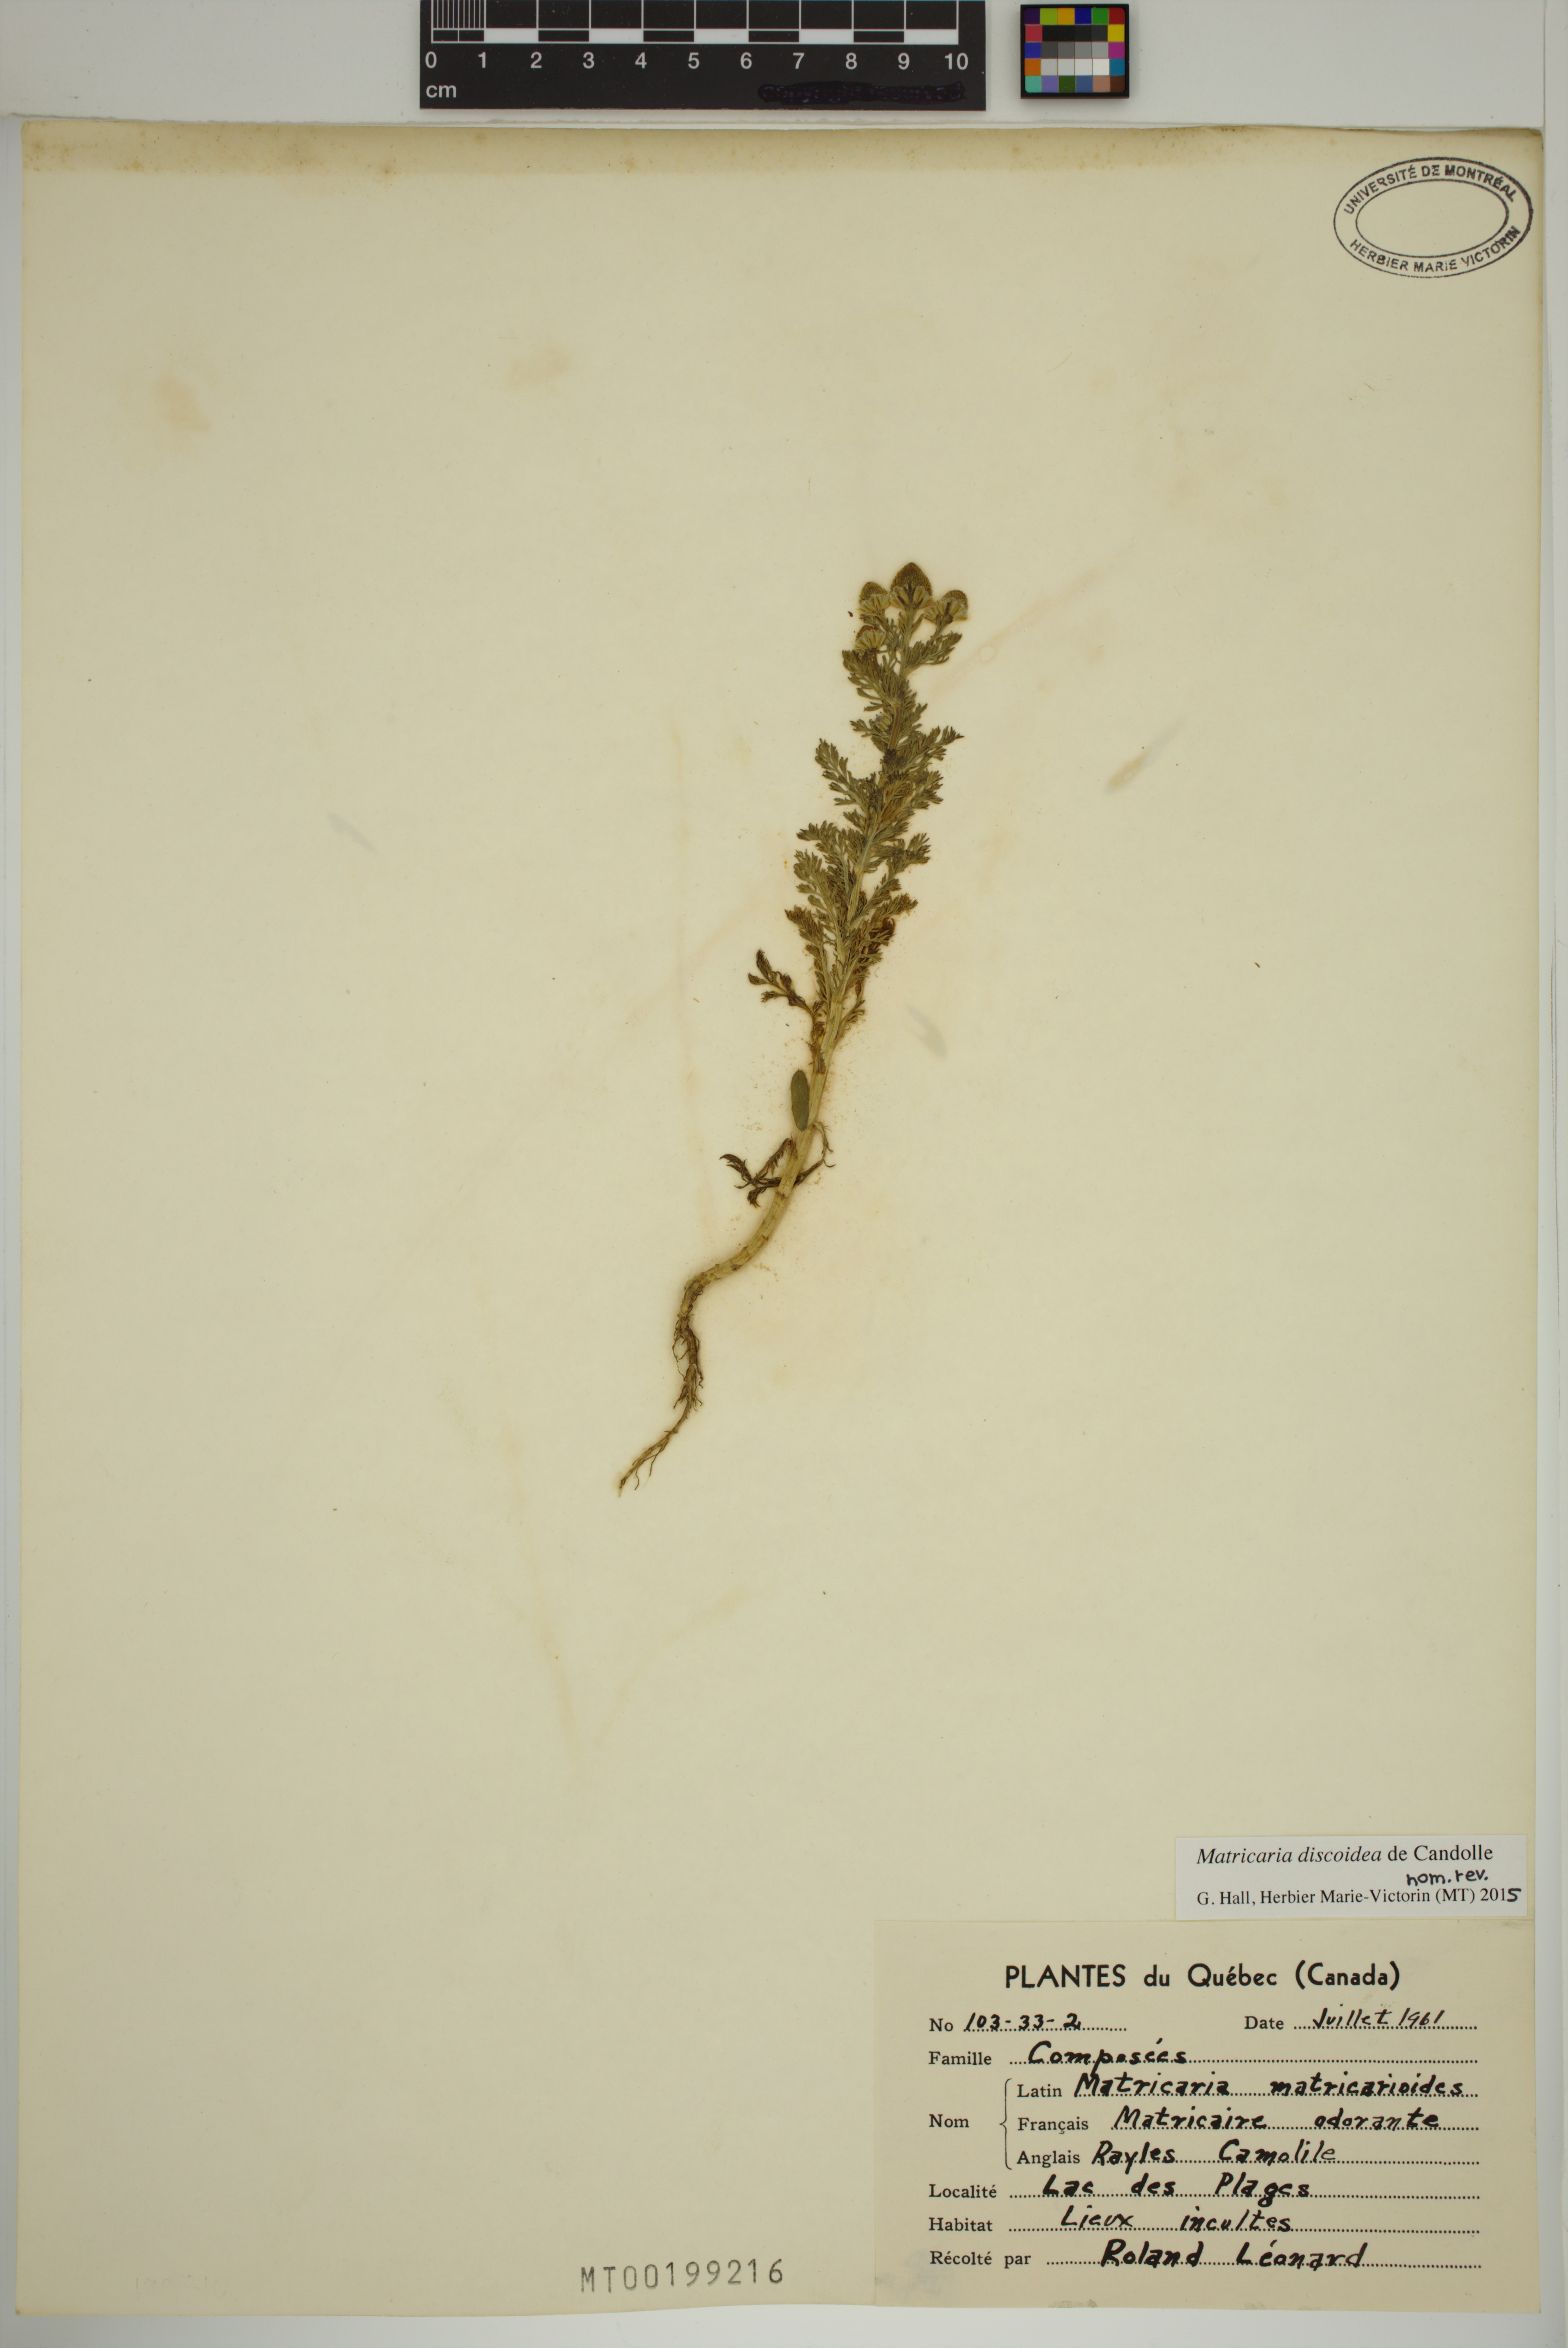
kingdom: Plantae
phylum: Tracheophyta
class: Magnoliopsida
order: Asterales
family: Asteraceae
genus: Matricaria
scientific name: Matricaria discoidea
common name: Disc mayweed
